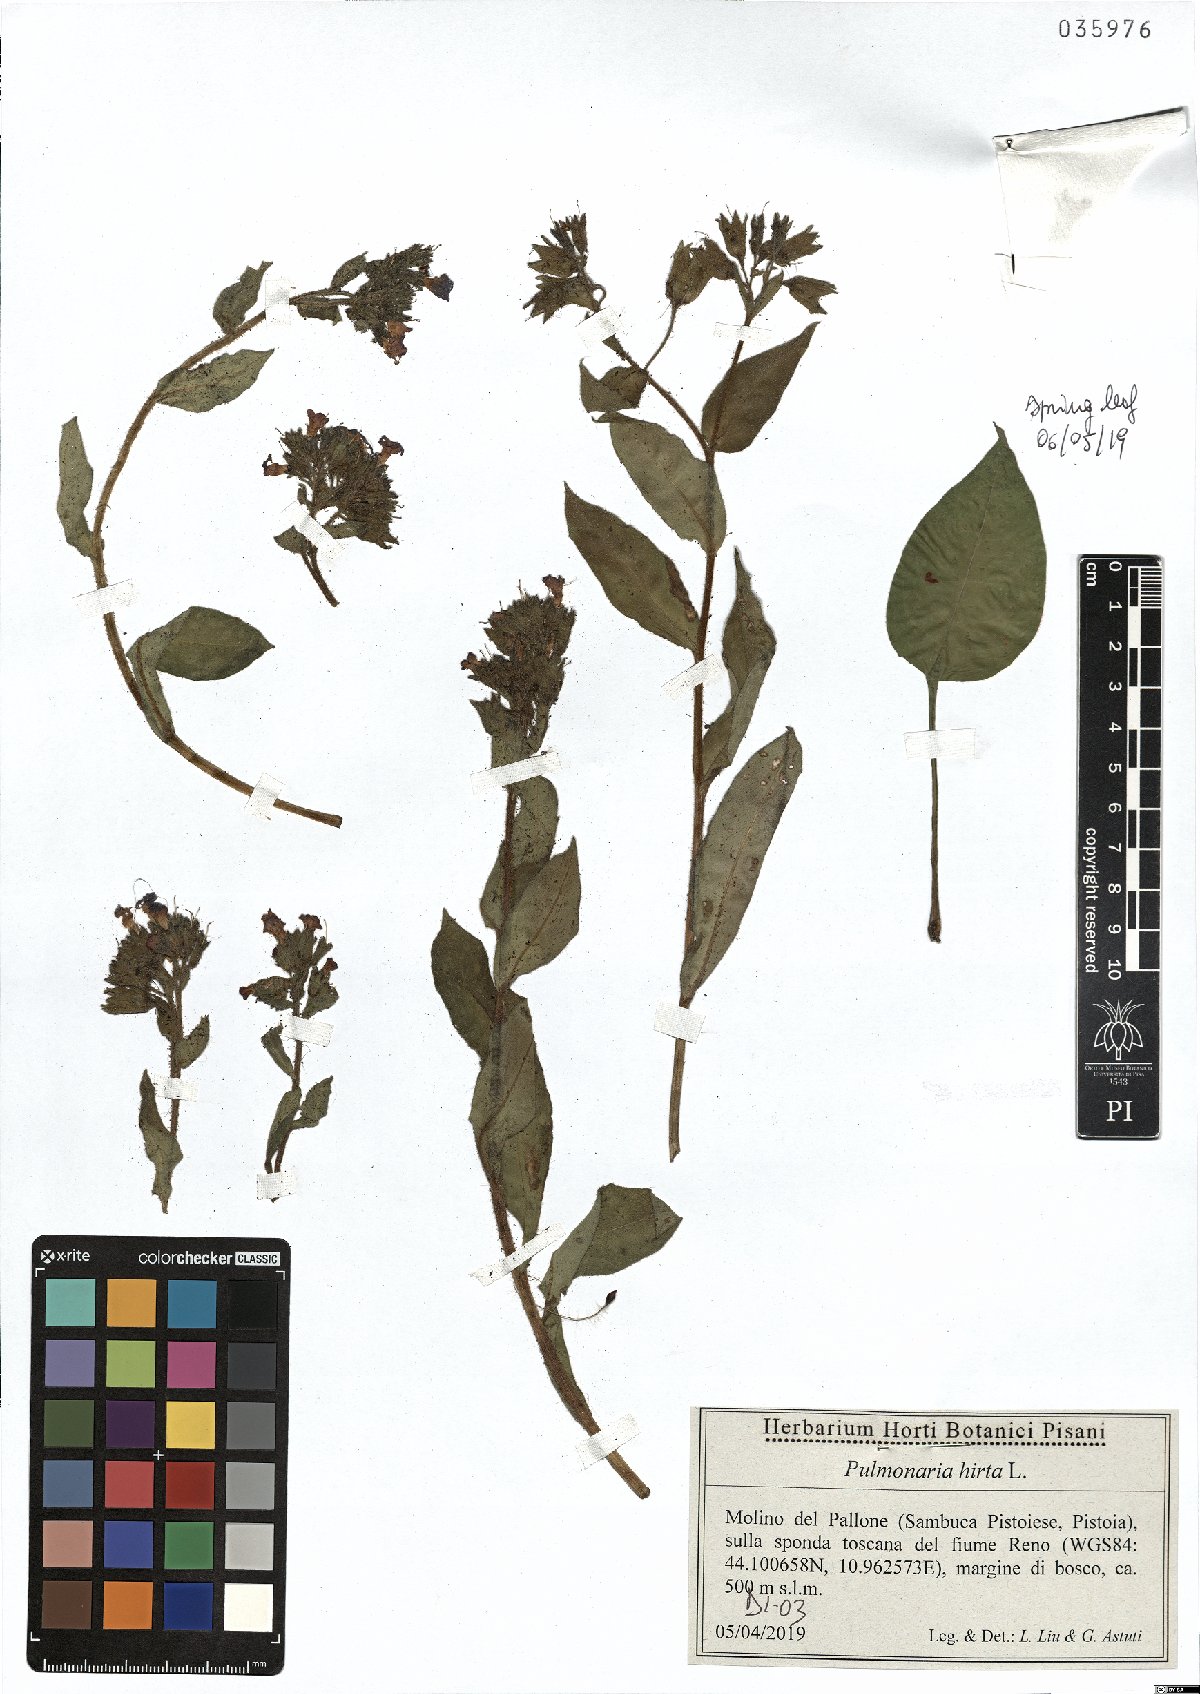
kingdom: Plantae
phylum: Tracheophyta
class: Magnoliopsida
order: Boraginales
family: Boraginaceae
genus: Pulmonaria
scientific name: Pulmonaria hirta
